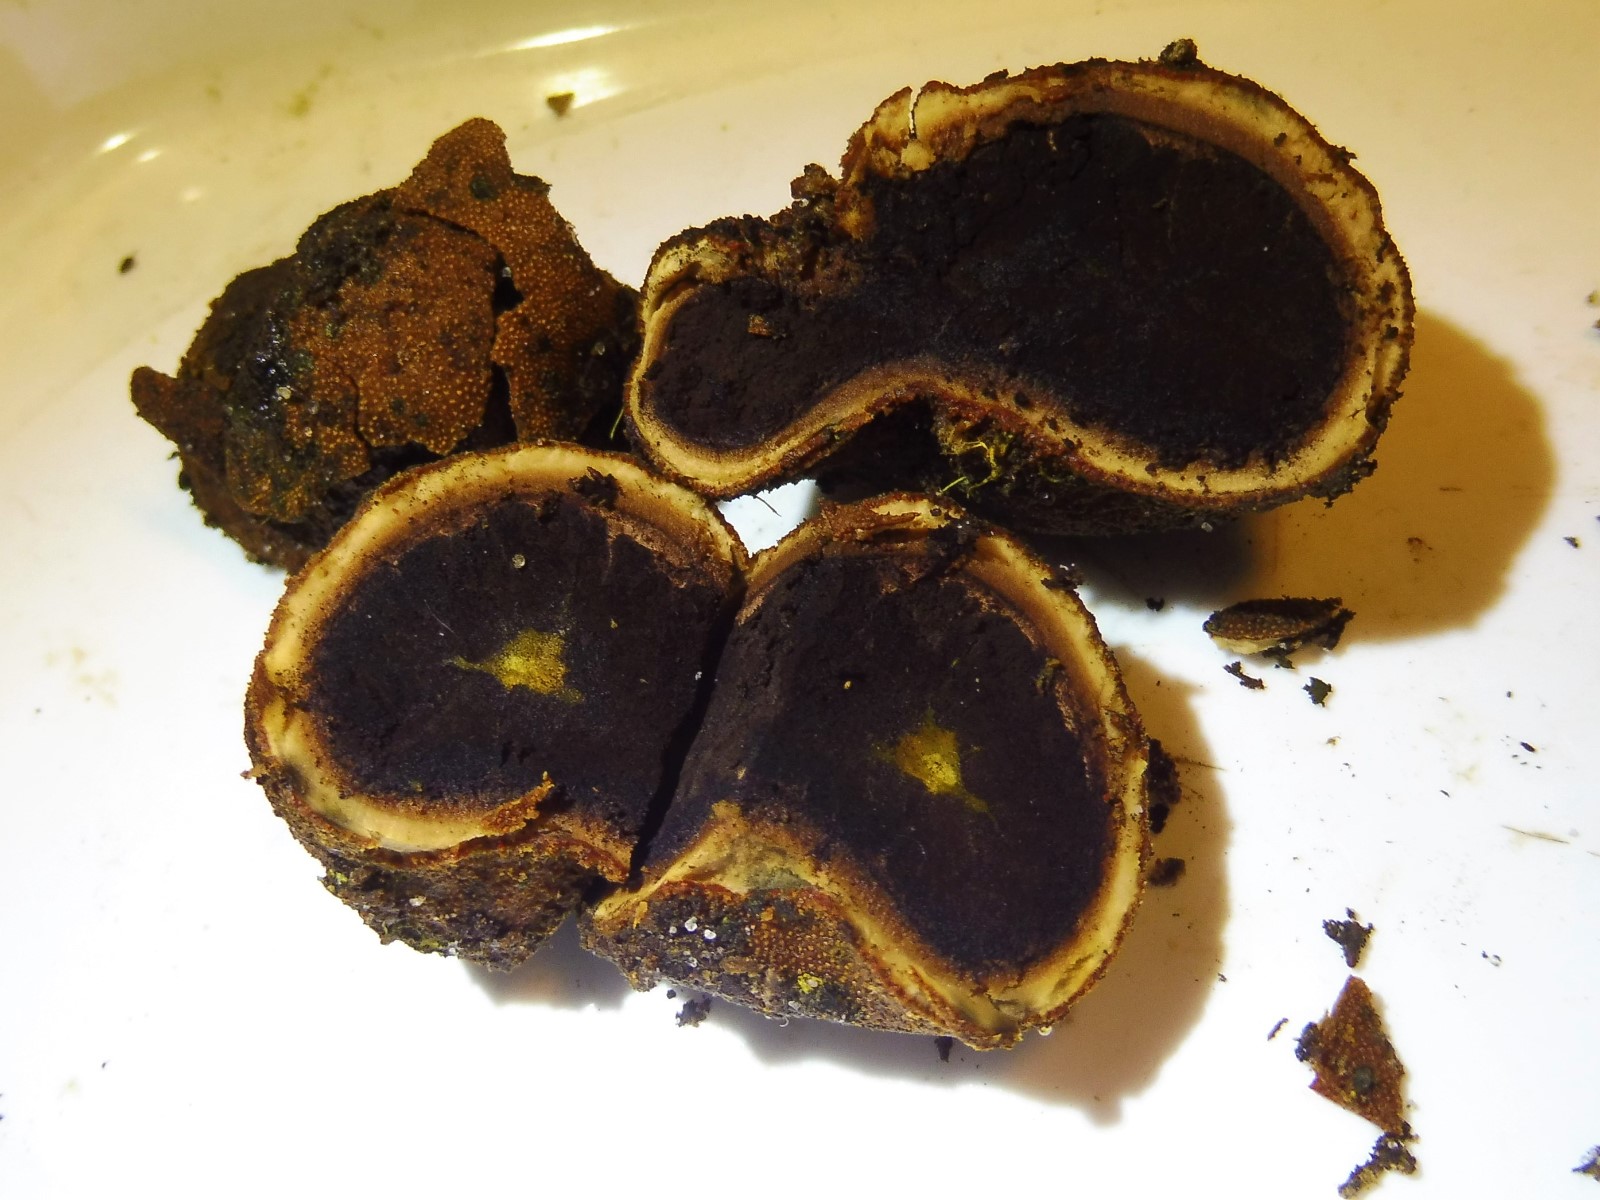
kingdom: Fungi
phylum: Ascomycota
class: Eurotiomycetes
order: Eurotiales
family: Elaphomycetaceae
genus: Elaphomyces
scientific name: Elaphomyces granulatus
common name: grynet hjortetrøffel
